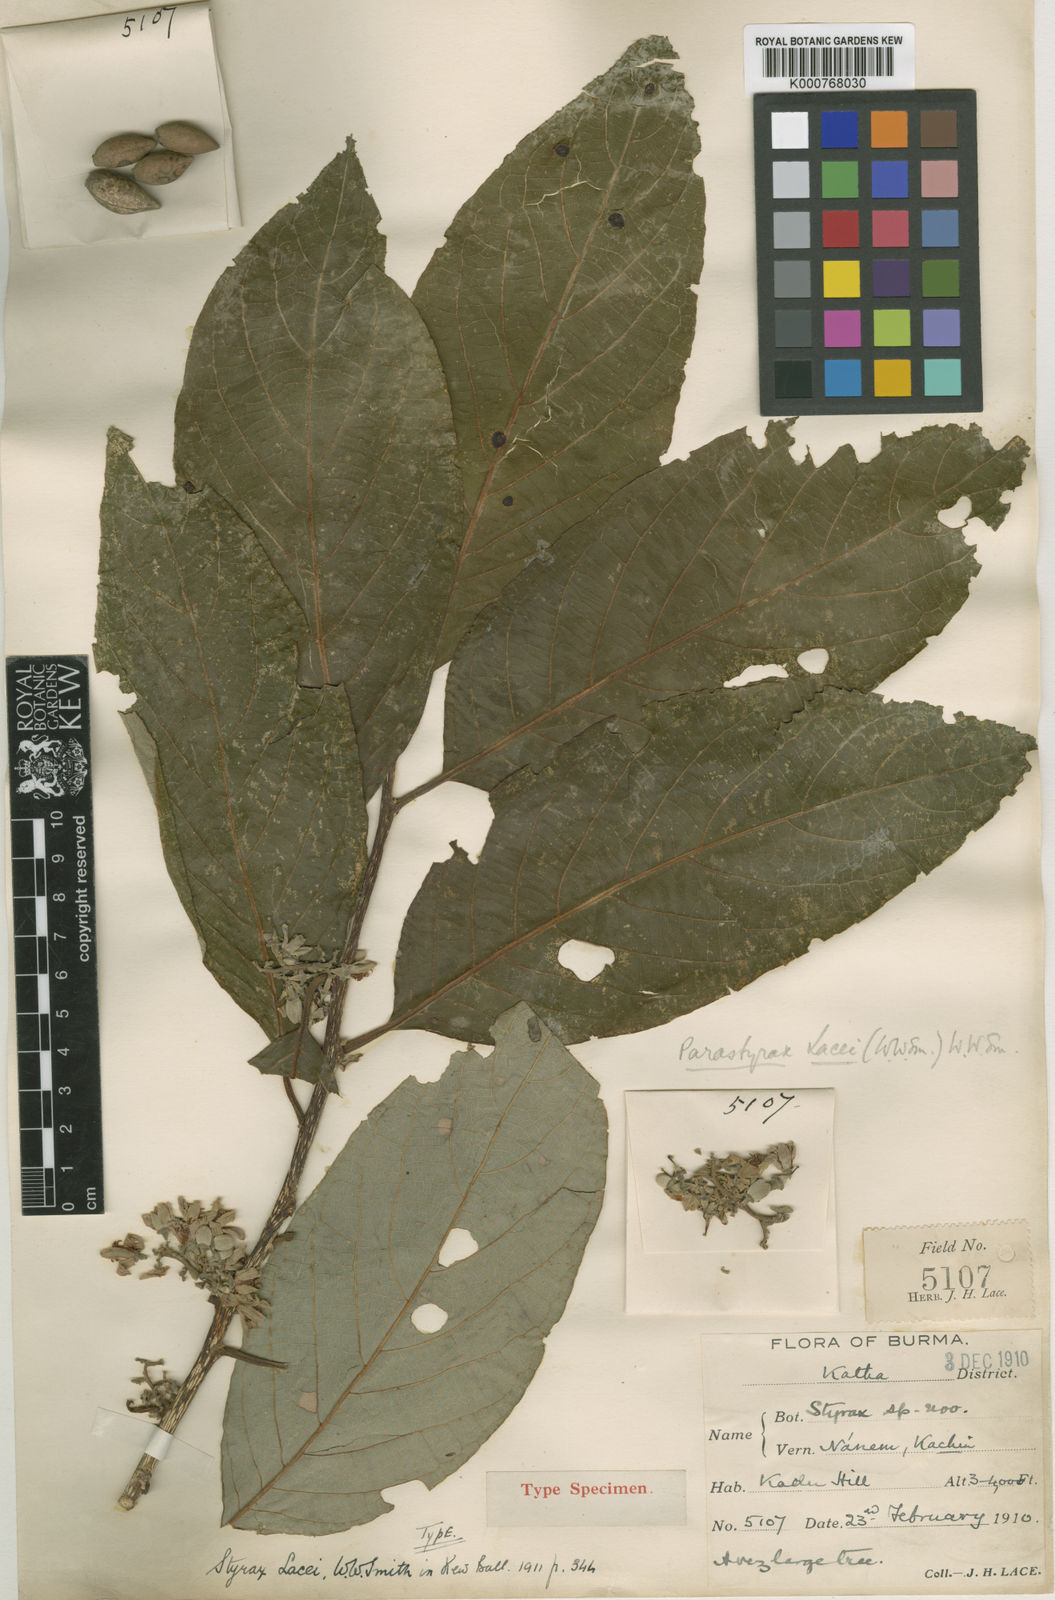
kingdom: Plantae
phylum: Tracheophyta
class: Magnoliopsida
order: Ericales
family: Styracaceae
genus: Parastyrax
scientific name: Parastyrax
